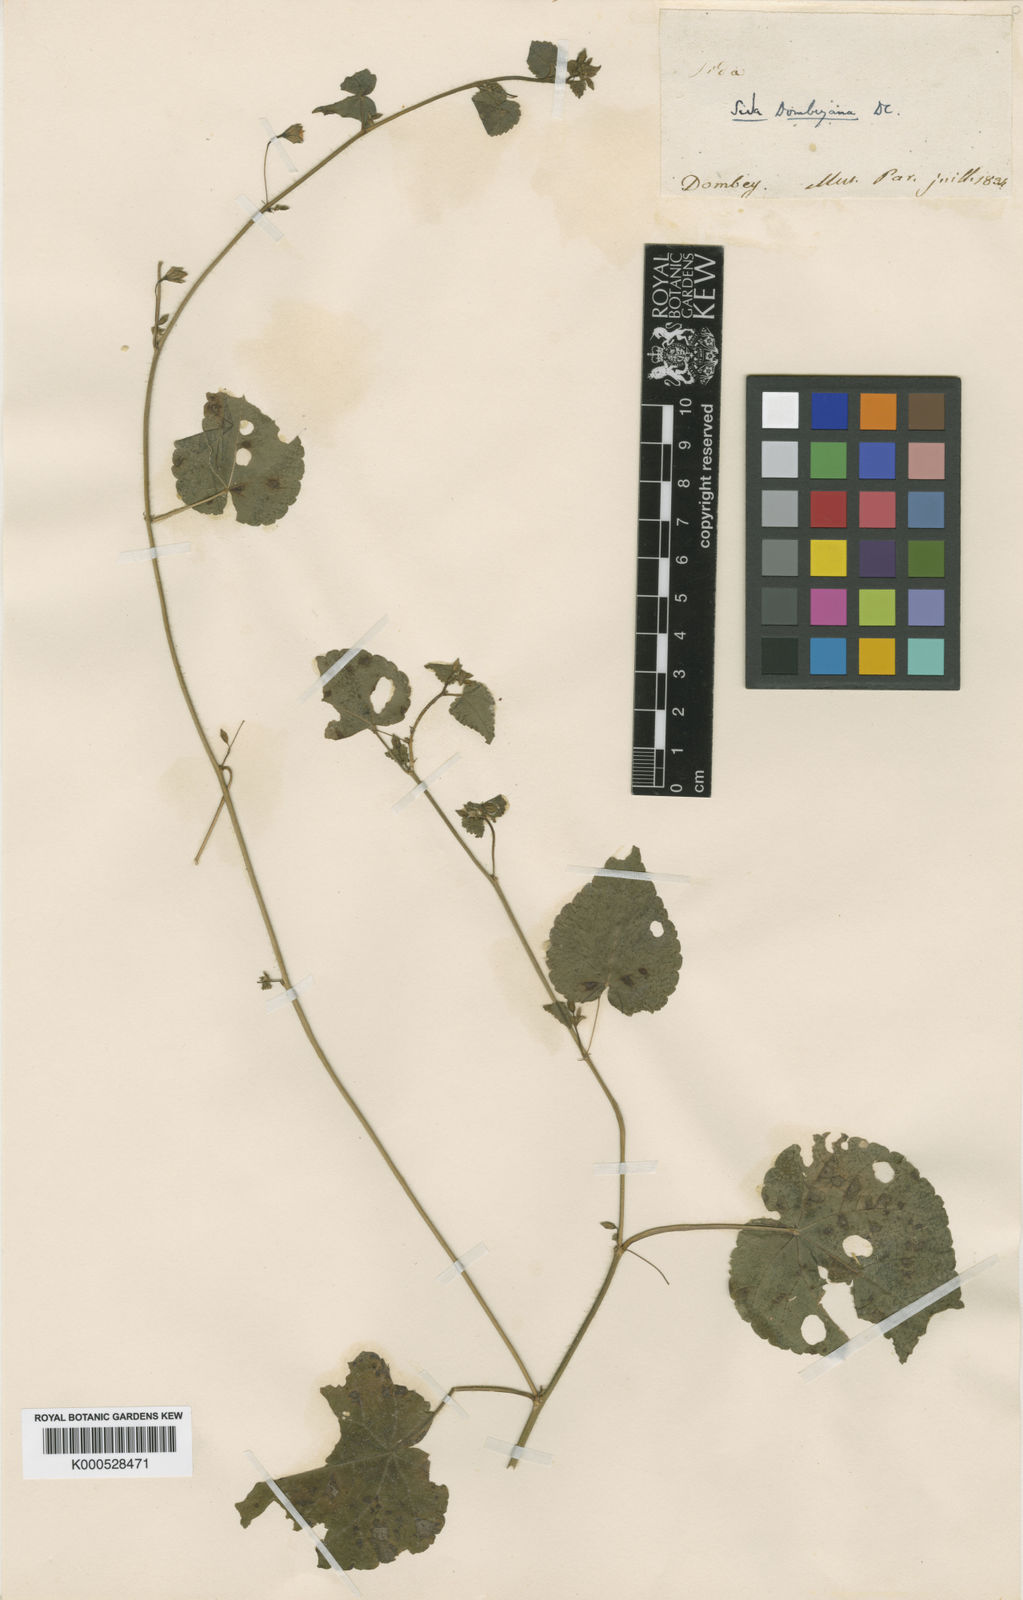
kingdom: Plantae
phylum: Tracheophyta
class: Magnoliopsida
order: Malvales
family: Malvaceae
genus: Sida
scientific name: Sida repens
